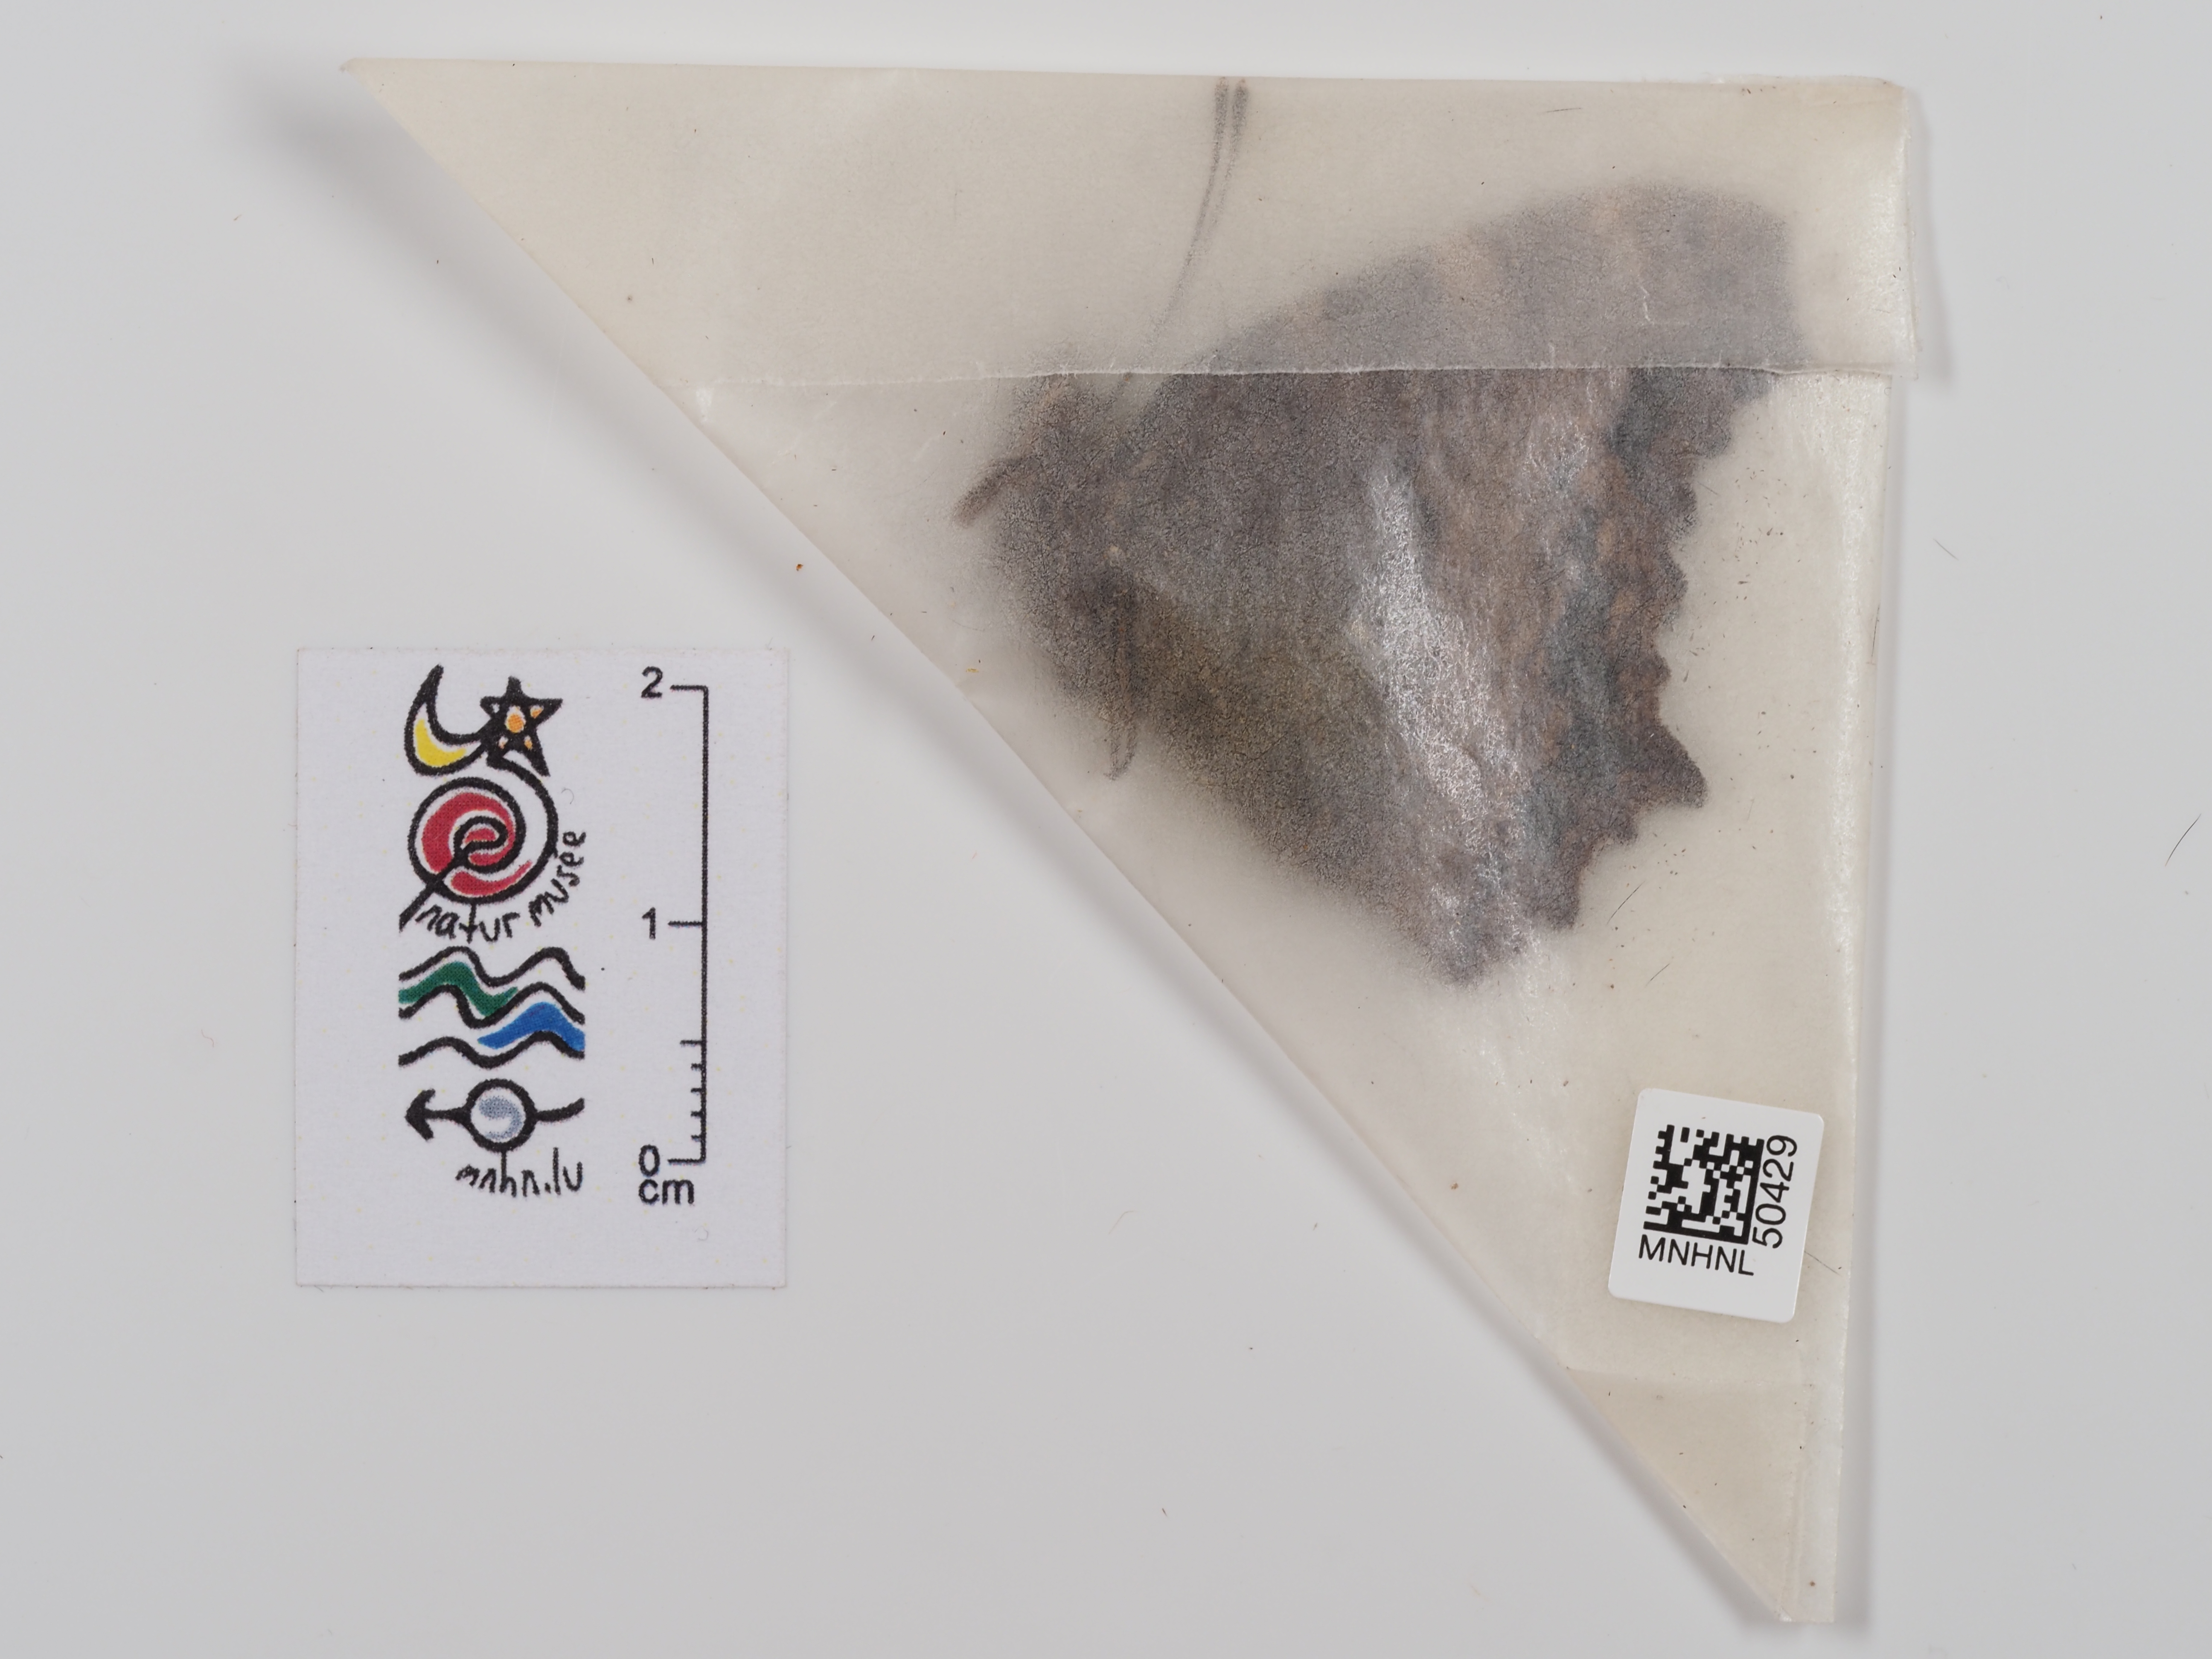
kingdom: Animalia
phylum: Arthropoda
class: Insecta
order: Lepidoptera
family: Nymphalidae
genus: Nymphalis
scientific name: Nymphalis polychloros
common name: Large tortoiseshell
